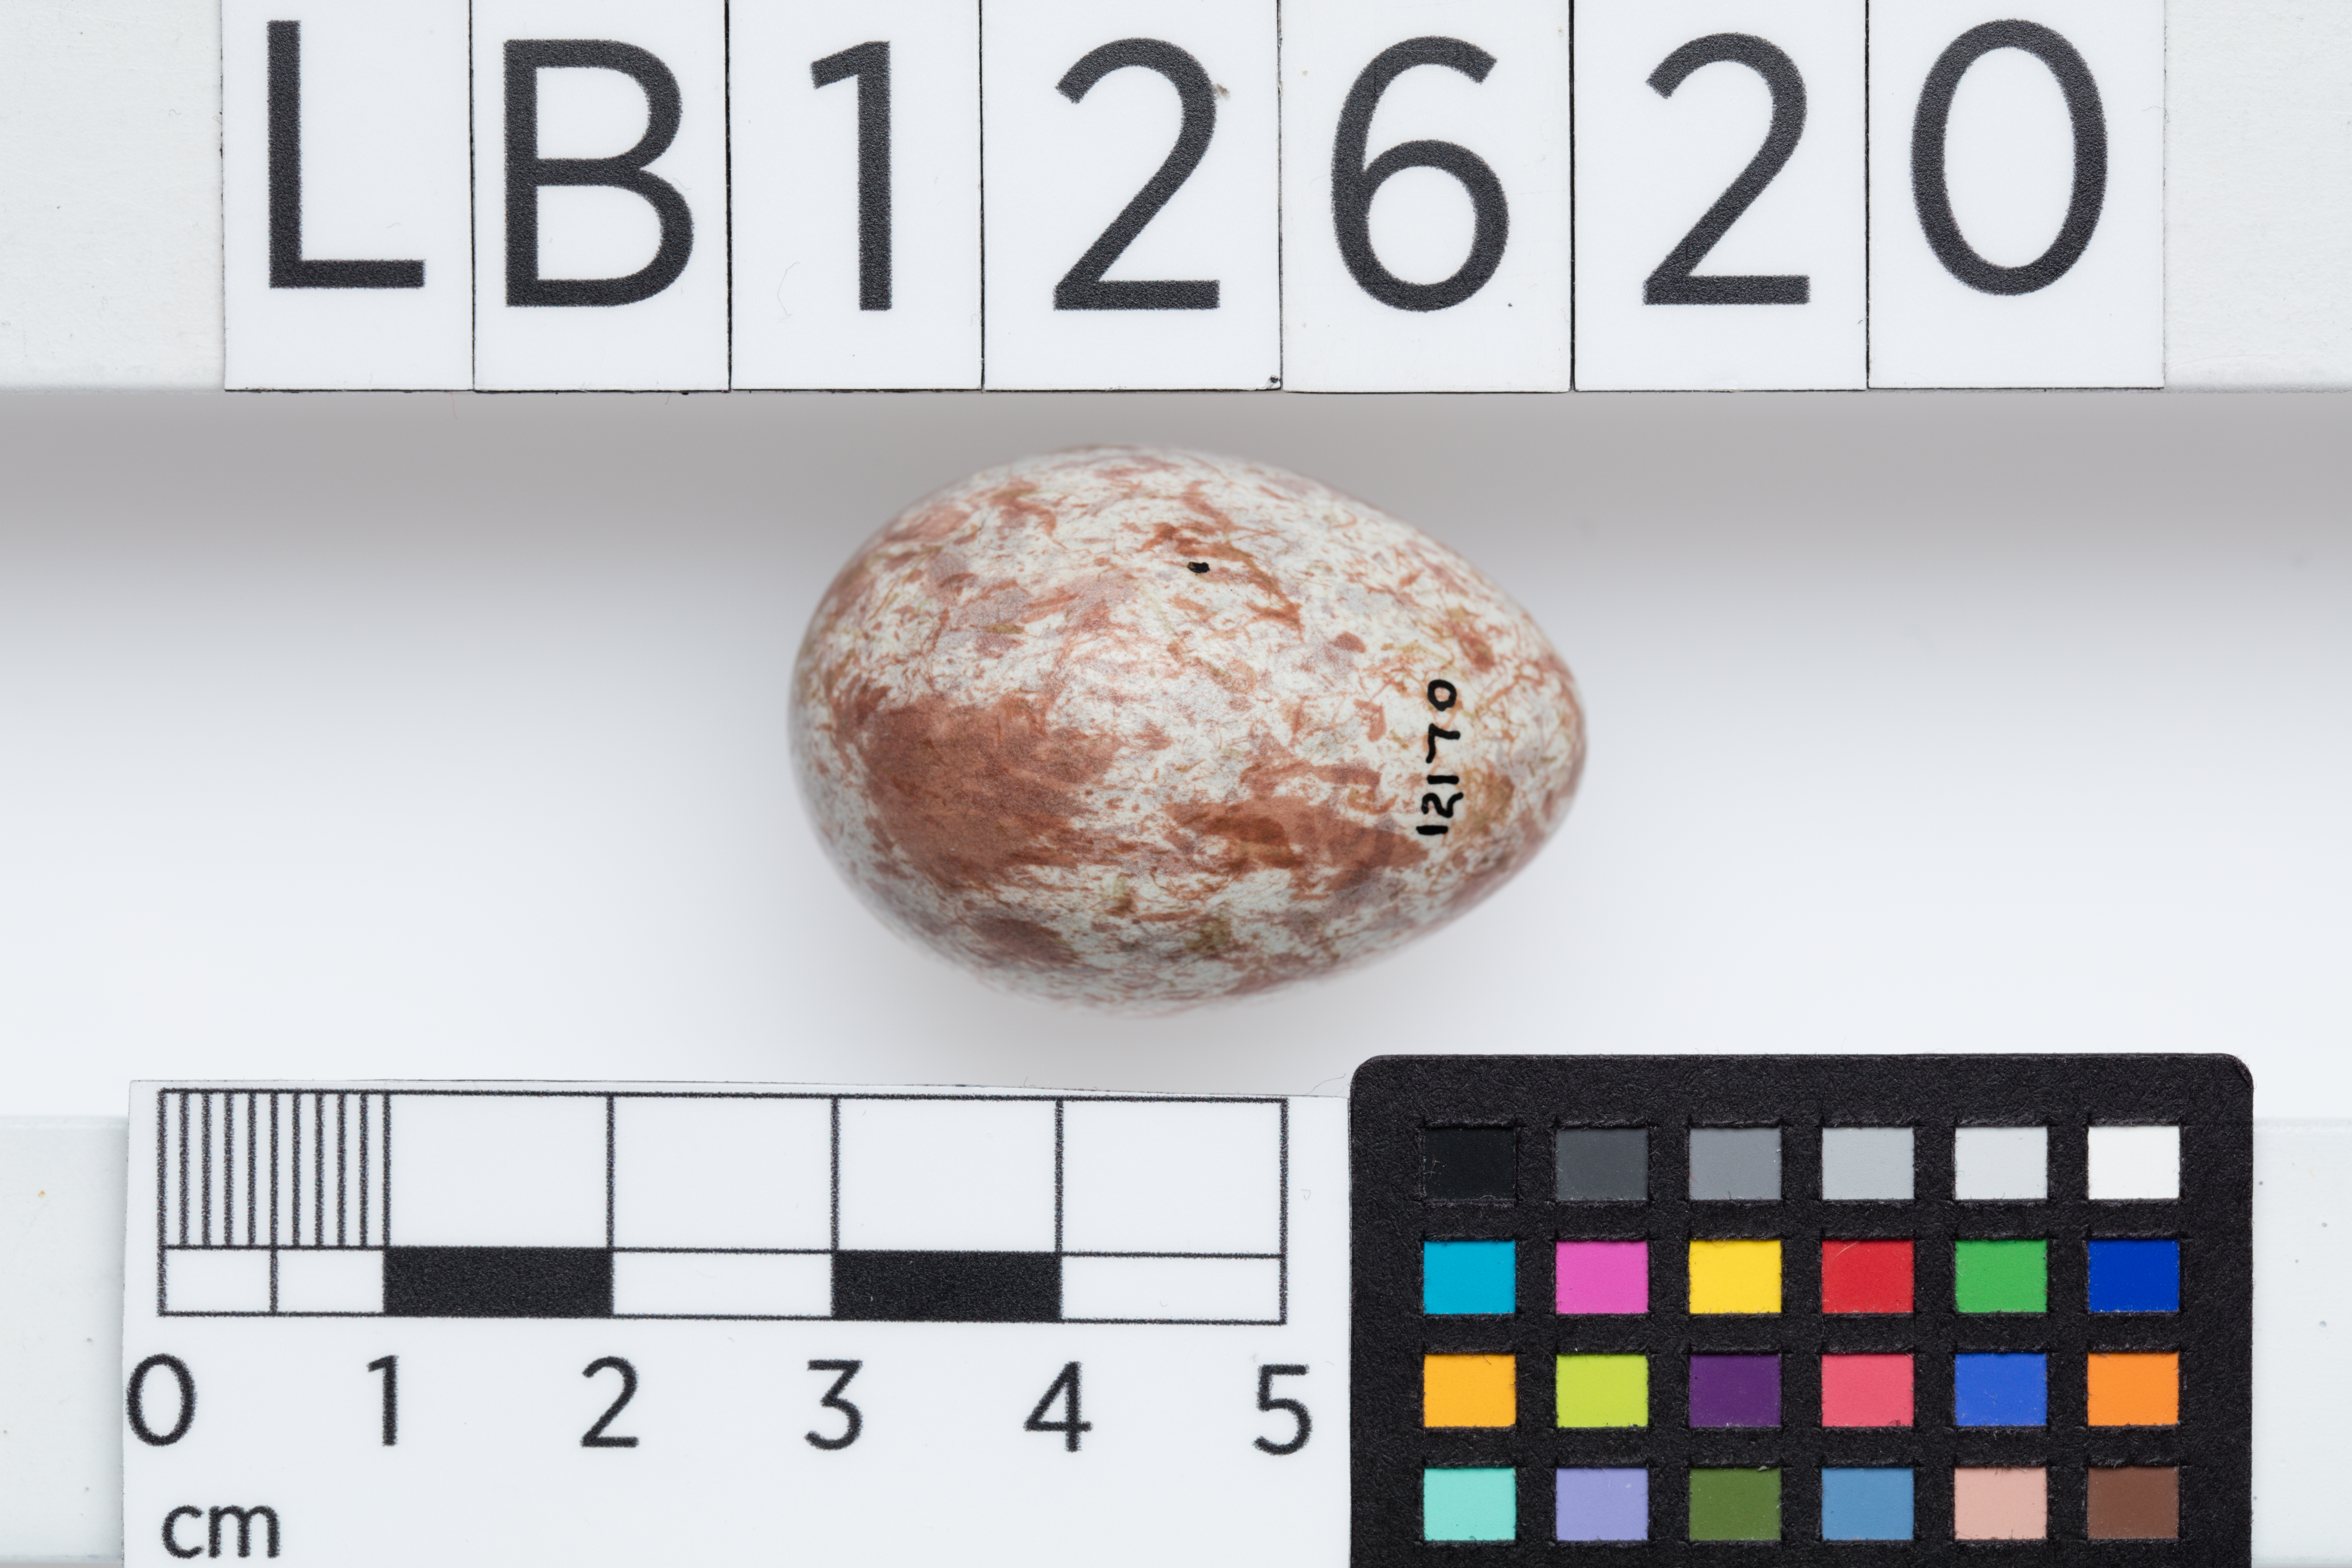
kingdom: Animalia
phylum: Chordata
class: Aves
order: Passeriformes
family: Cracticidae
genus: Gymnorhina
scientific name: Gymnorhina tibicen
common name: Australian magpie
